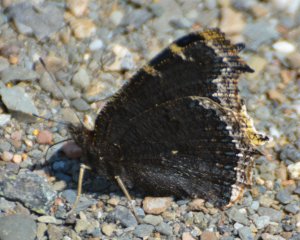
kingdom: Animalia
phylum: Arthropoda
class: Insecta
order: Lepidoptera
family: Nymphalidae
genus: Nymphalis
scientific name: Nymphalis antiopa
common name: Mourning Cloak
